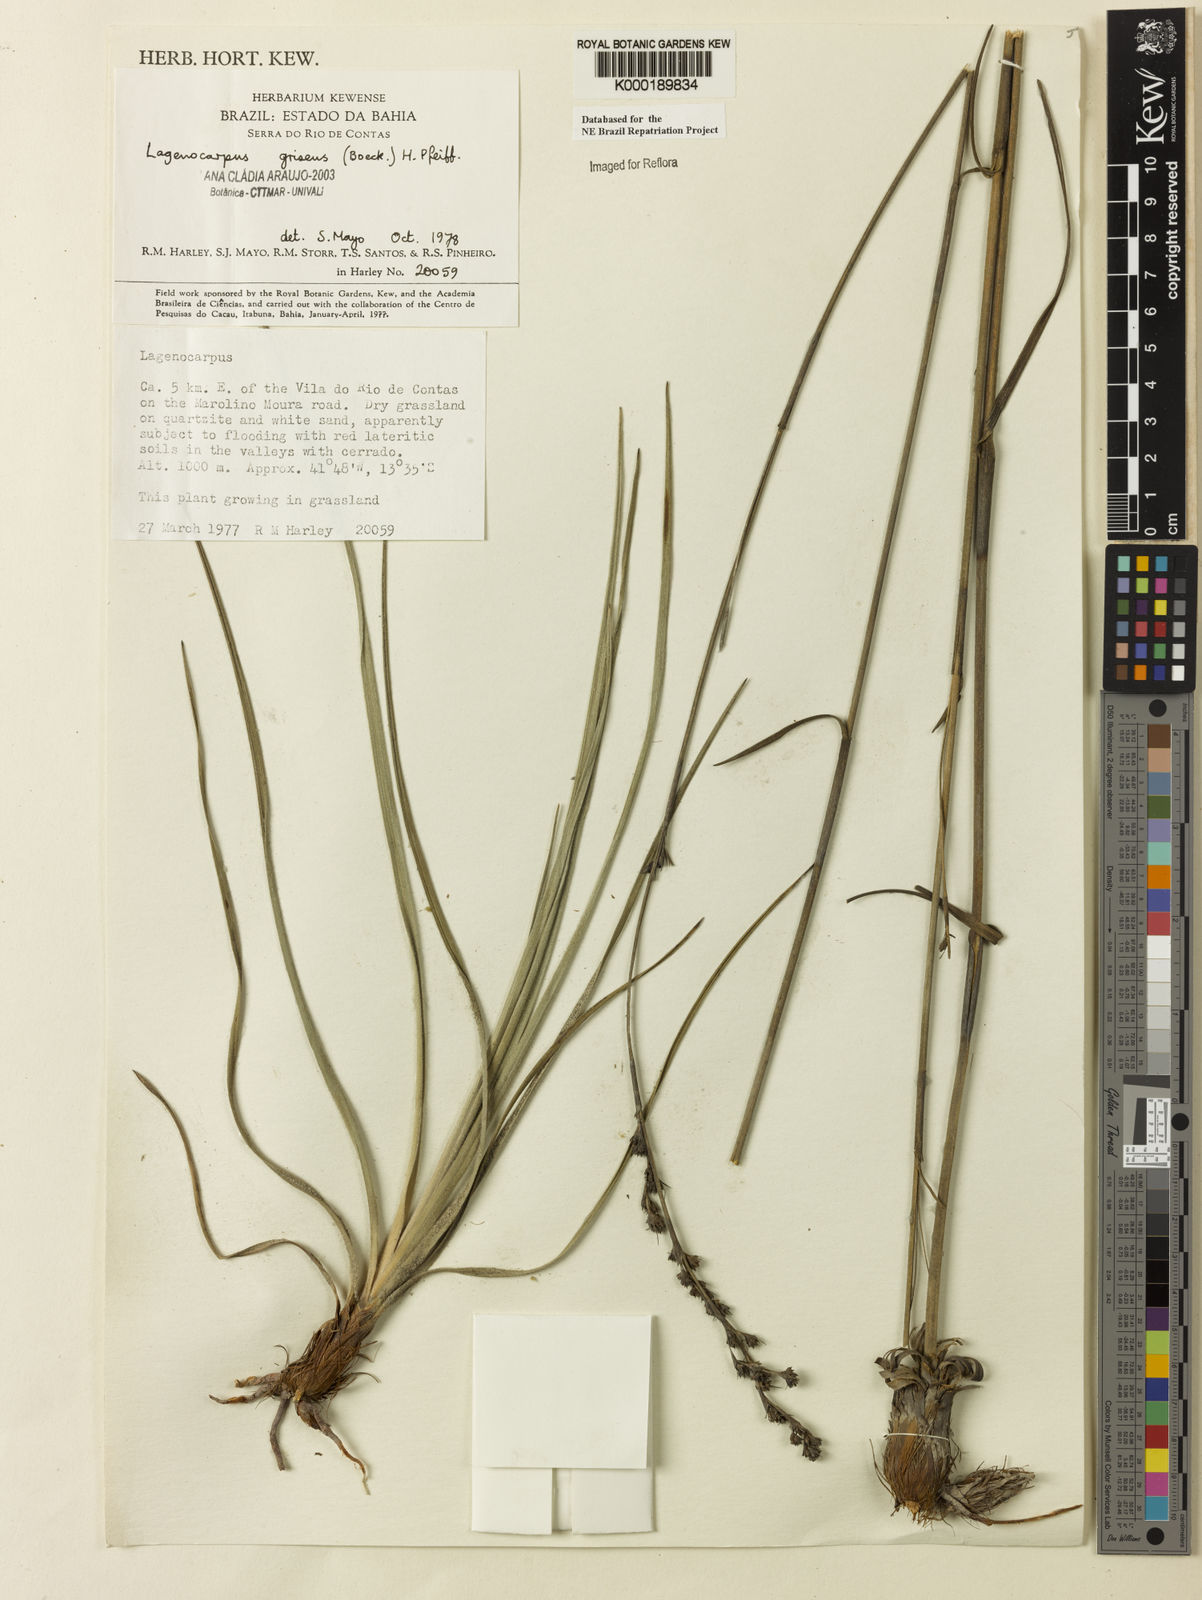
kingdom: Plantae
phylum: Tracheophyta
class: Liliopsida
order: Poales
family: Cyperaceae
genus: Lagenocarpus
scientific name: Lagenocarpus griseus
